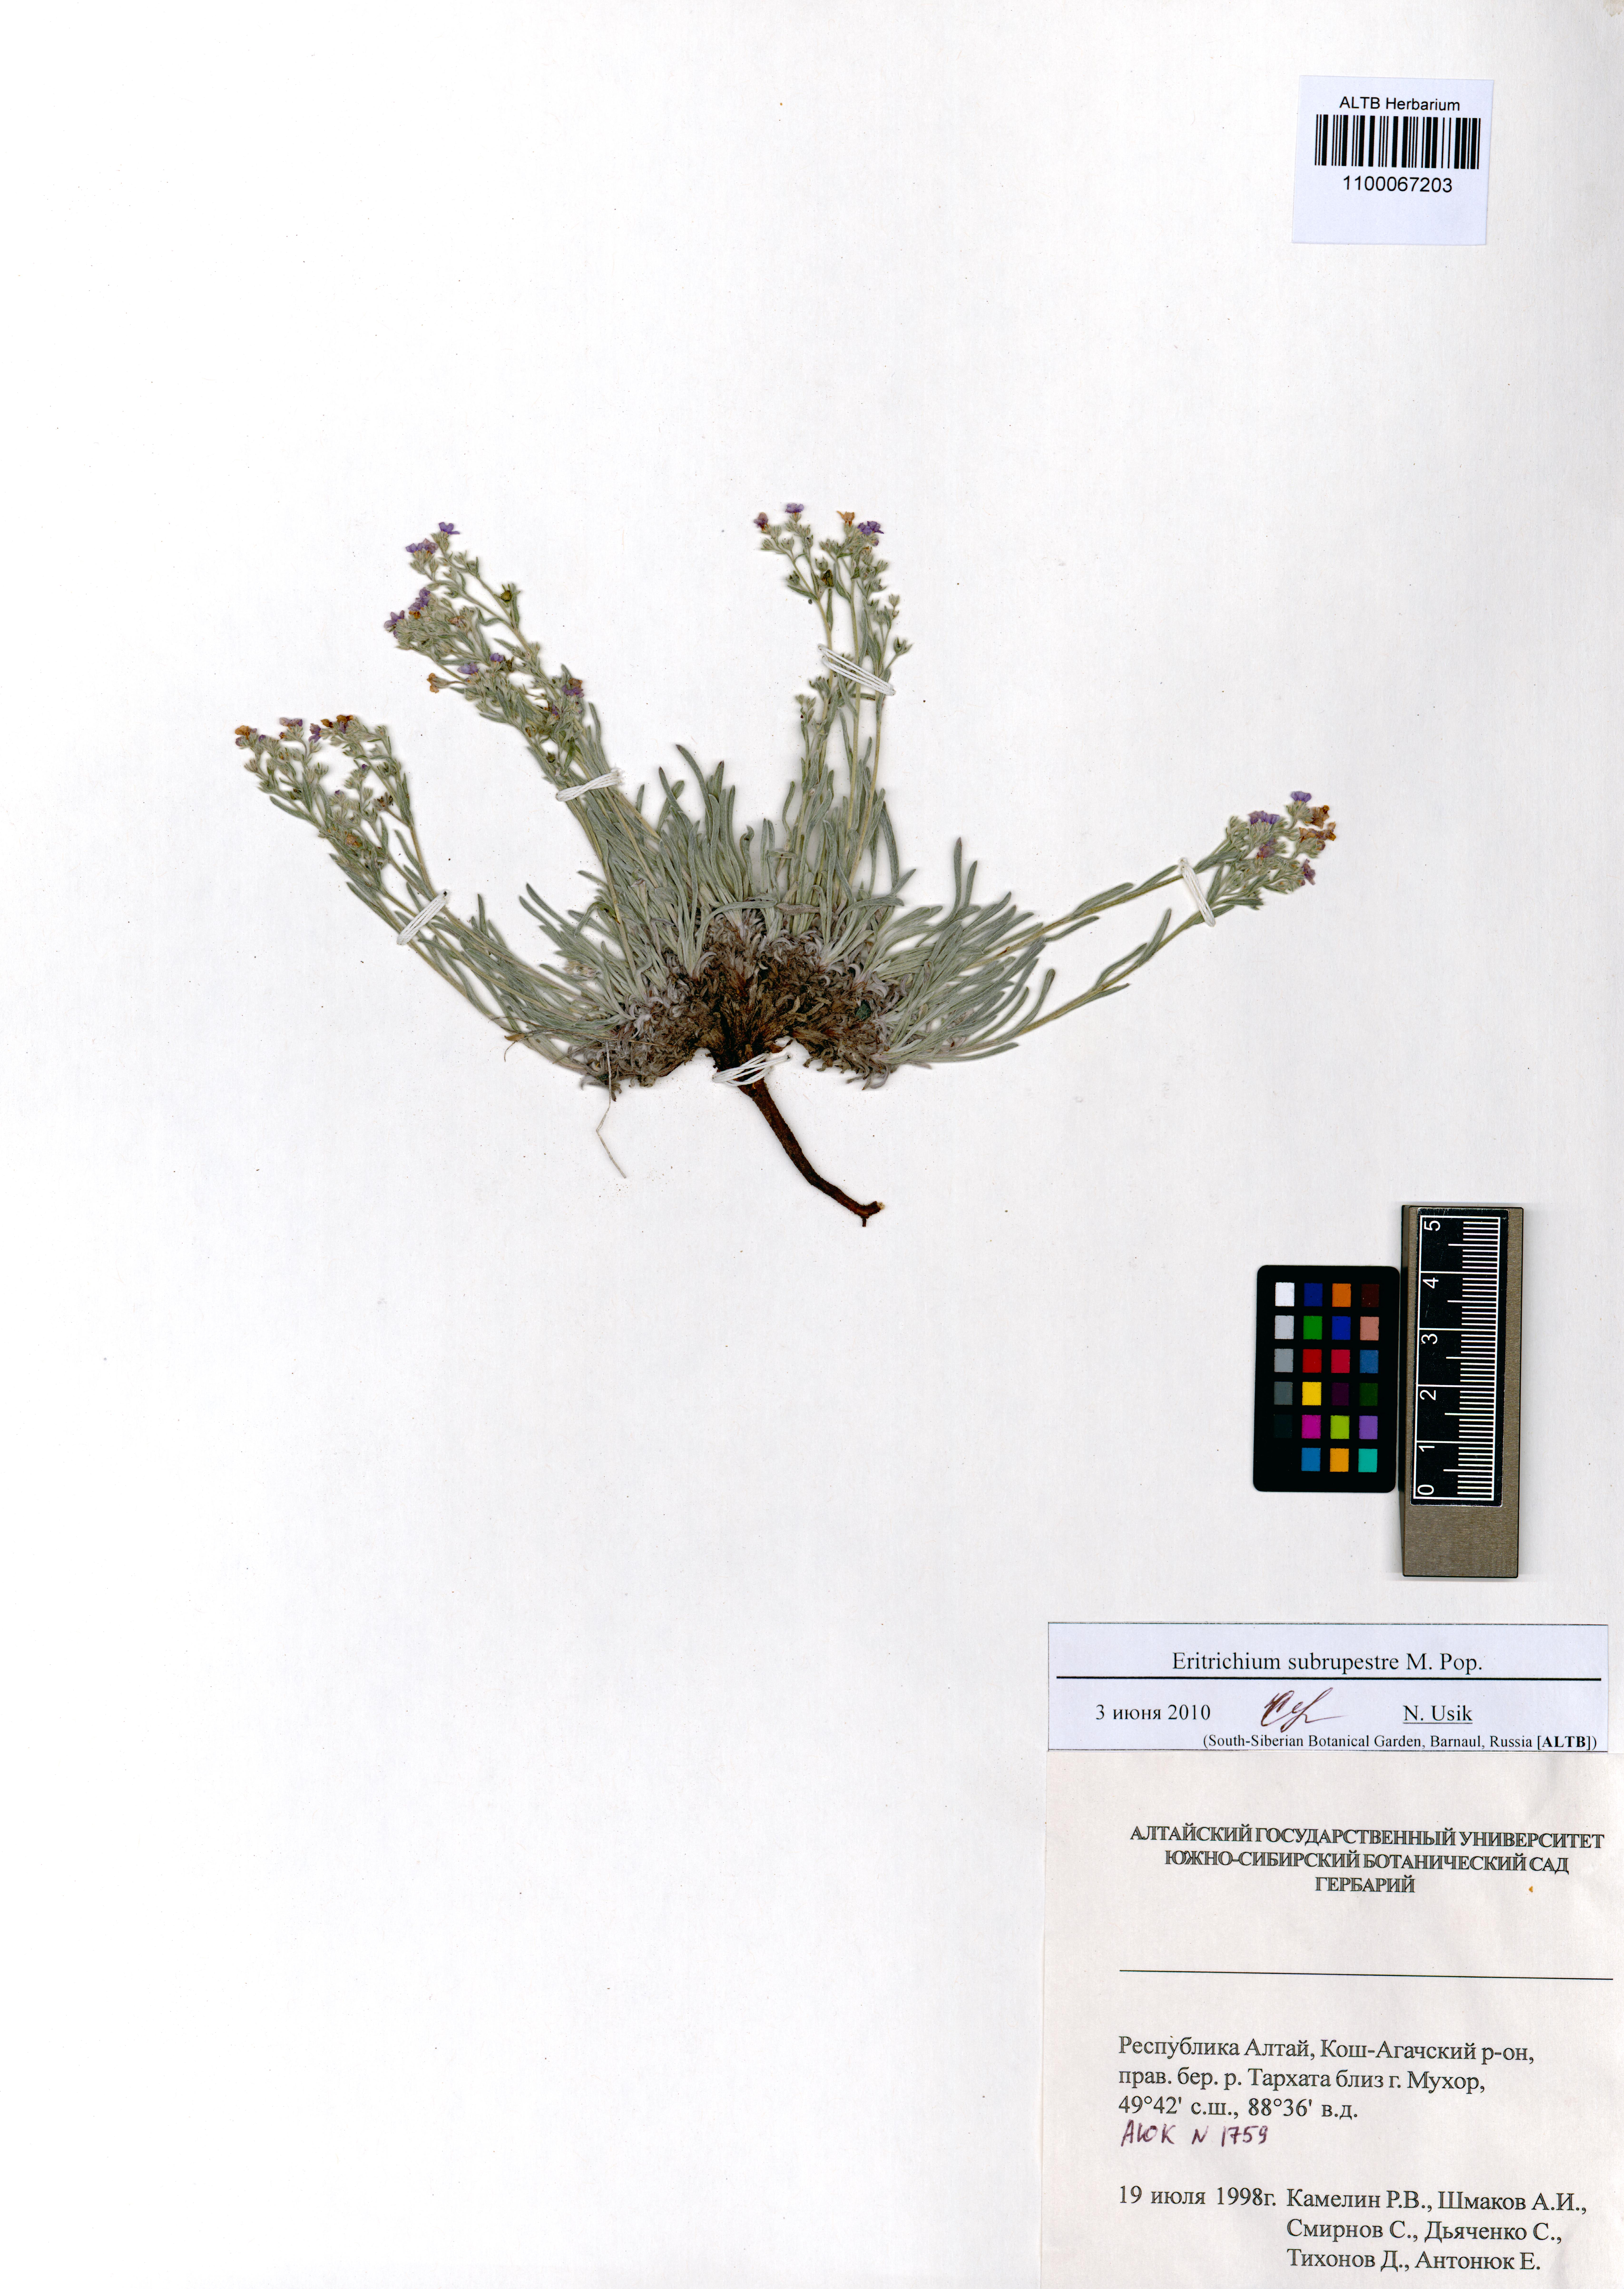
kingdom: Plantae
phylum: Tracheophyta
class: Magnoliopsida
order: Boraginales
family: Boraginaceae
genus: Eritrichium
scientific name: Eritrichium pauciflorum
